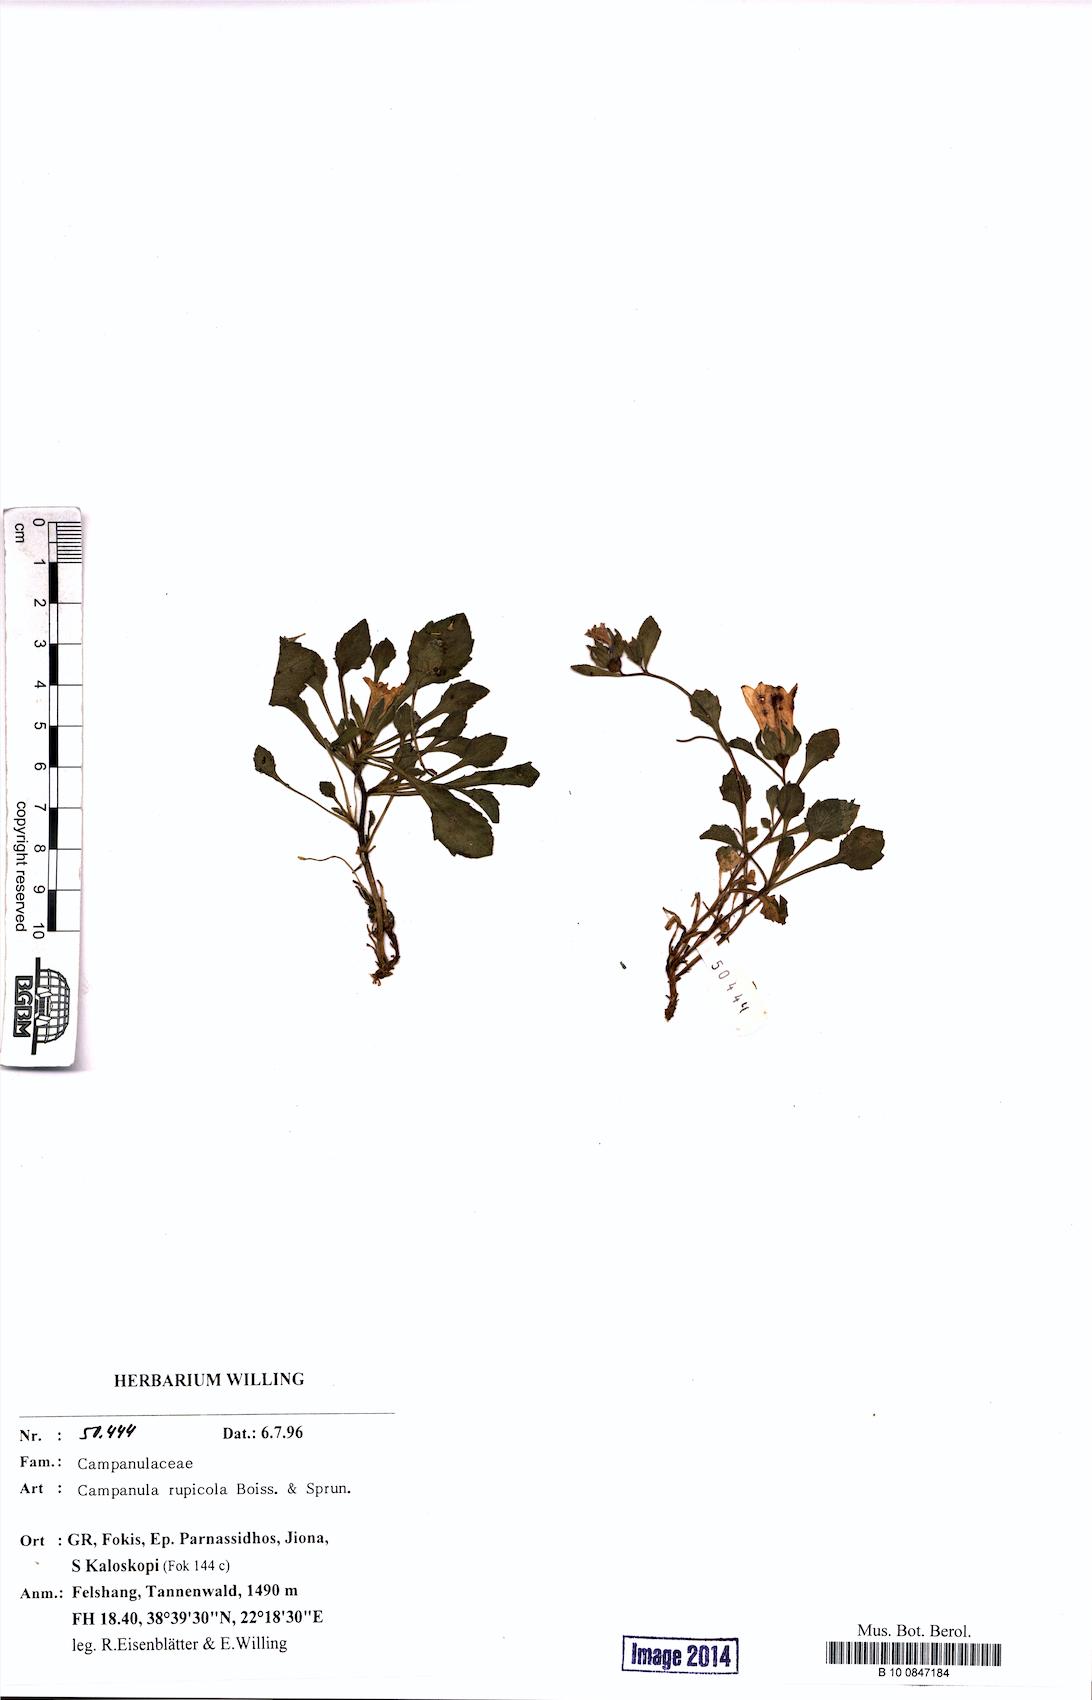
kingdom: Plantae
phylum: Tracheophyta
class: Magnoliopsida
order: Asterales
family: Campanulaceae
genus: Campanula
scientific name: Campanula rupicola
